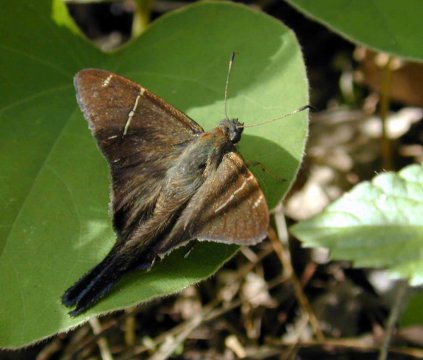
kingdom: Animalia
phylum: Arthropoda
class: Insecta
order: Lepidoptera
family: Hesperiidae
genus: Urbanus
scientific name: Urbanus teleus
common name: Teleus Longtail
